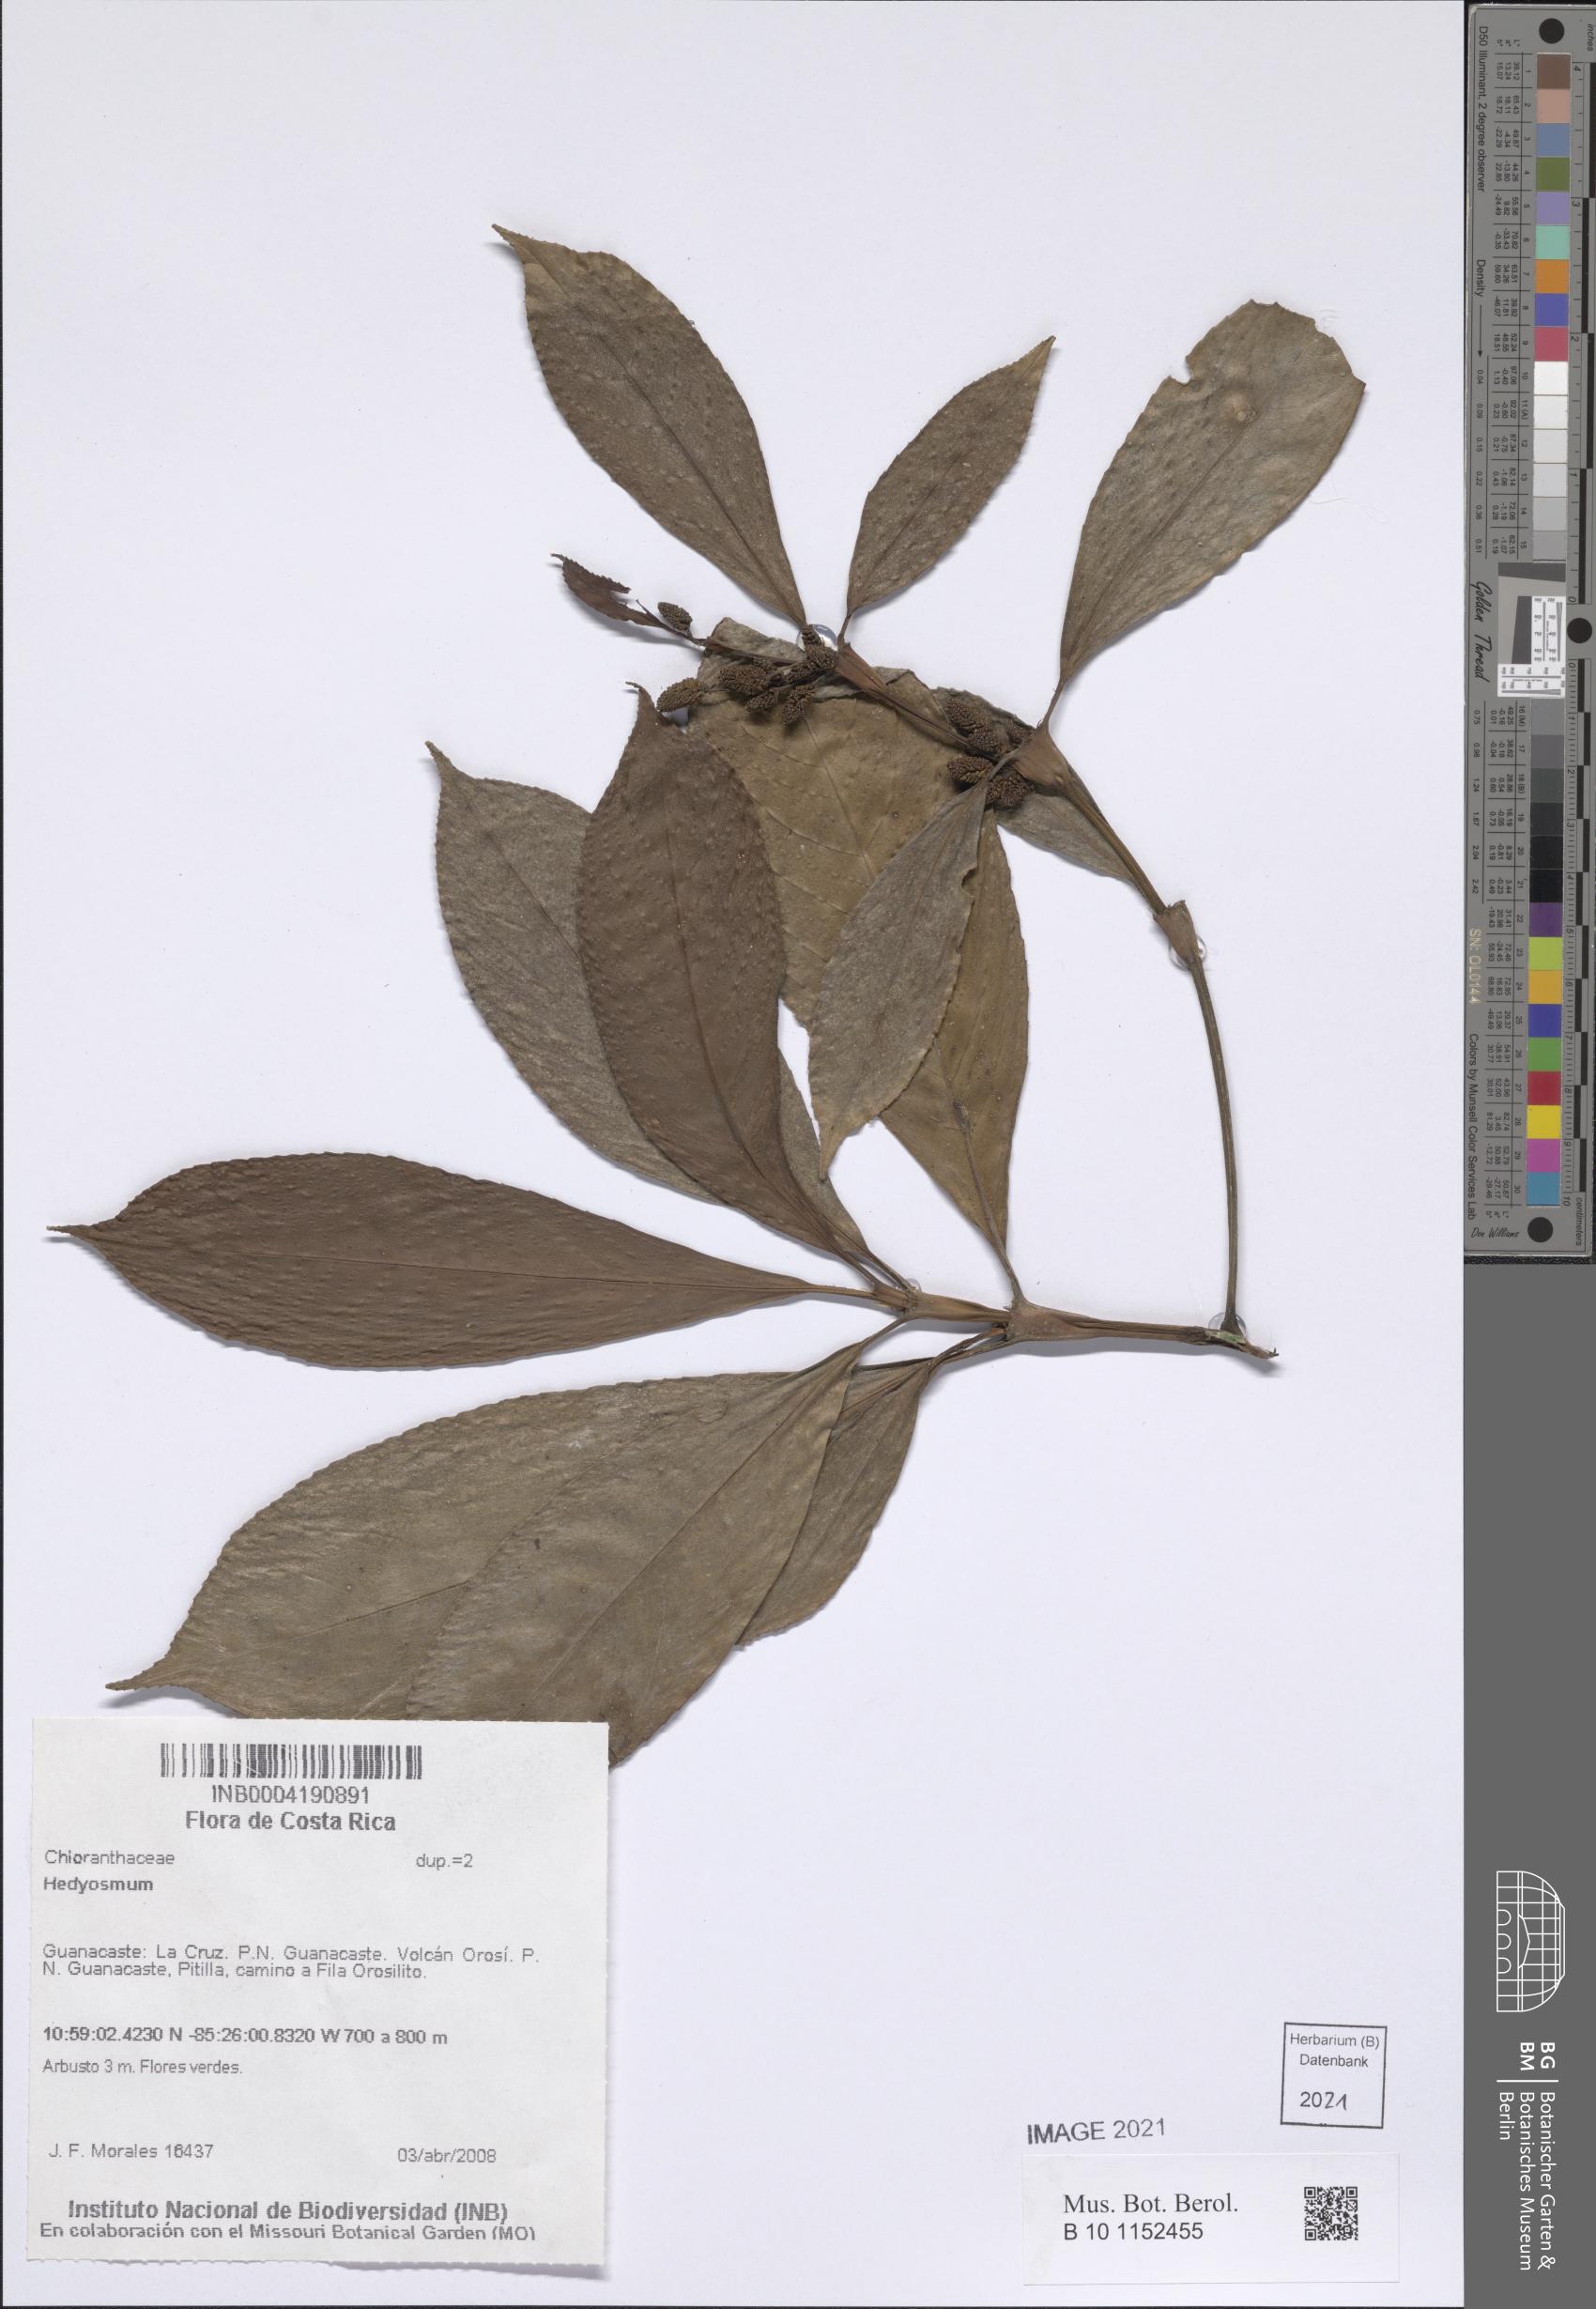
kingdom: Plantae
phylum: Tracheophyta
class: Magnoliopsida
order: Chloranthales
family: Chloranthaceae
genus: Hedyosmum
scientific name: Hedyosmum
